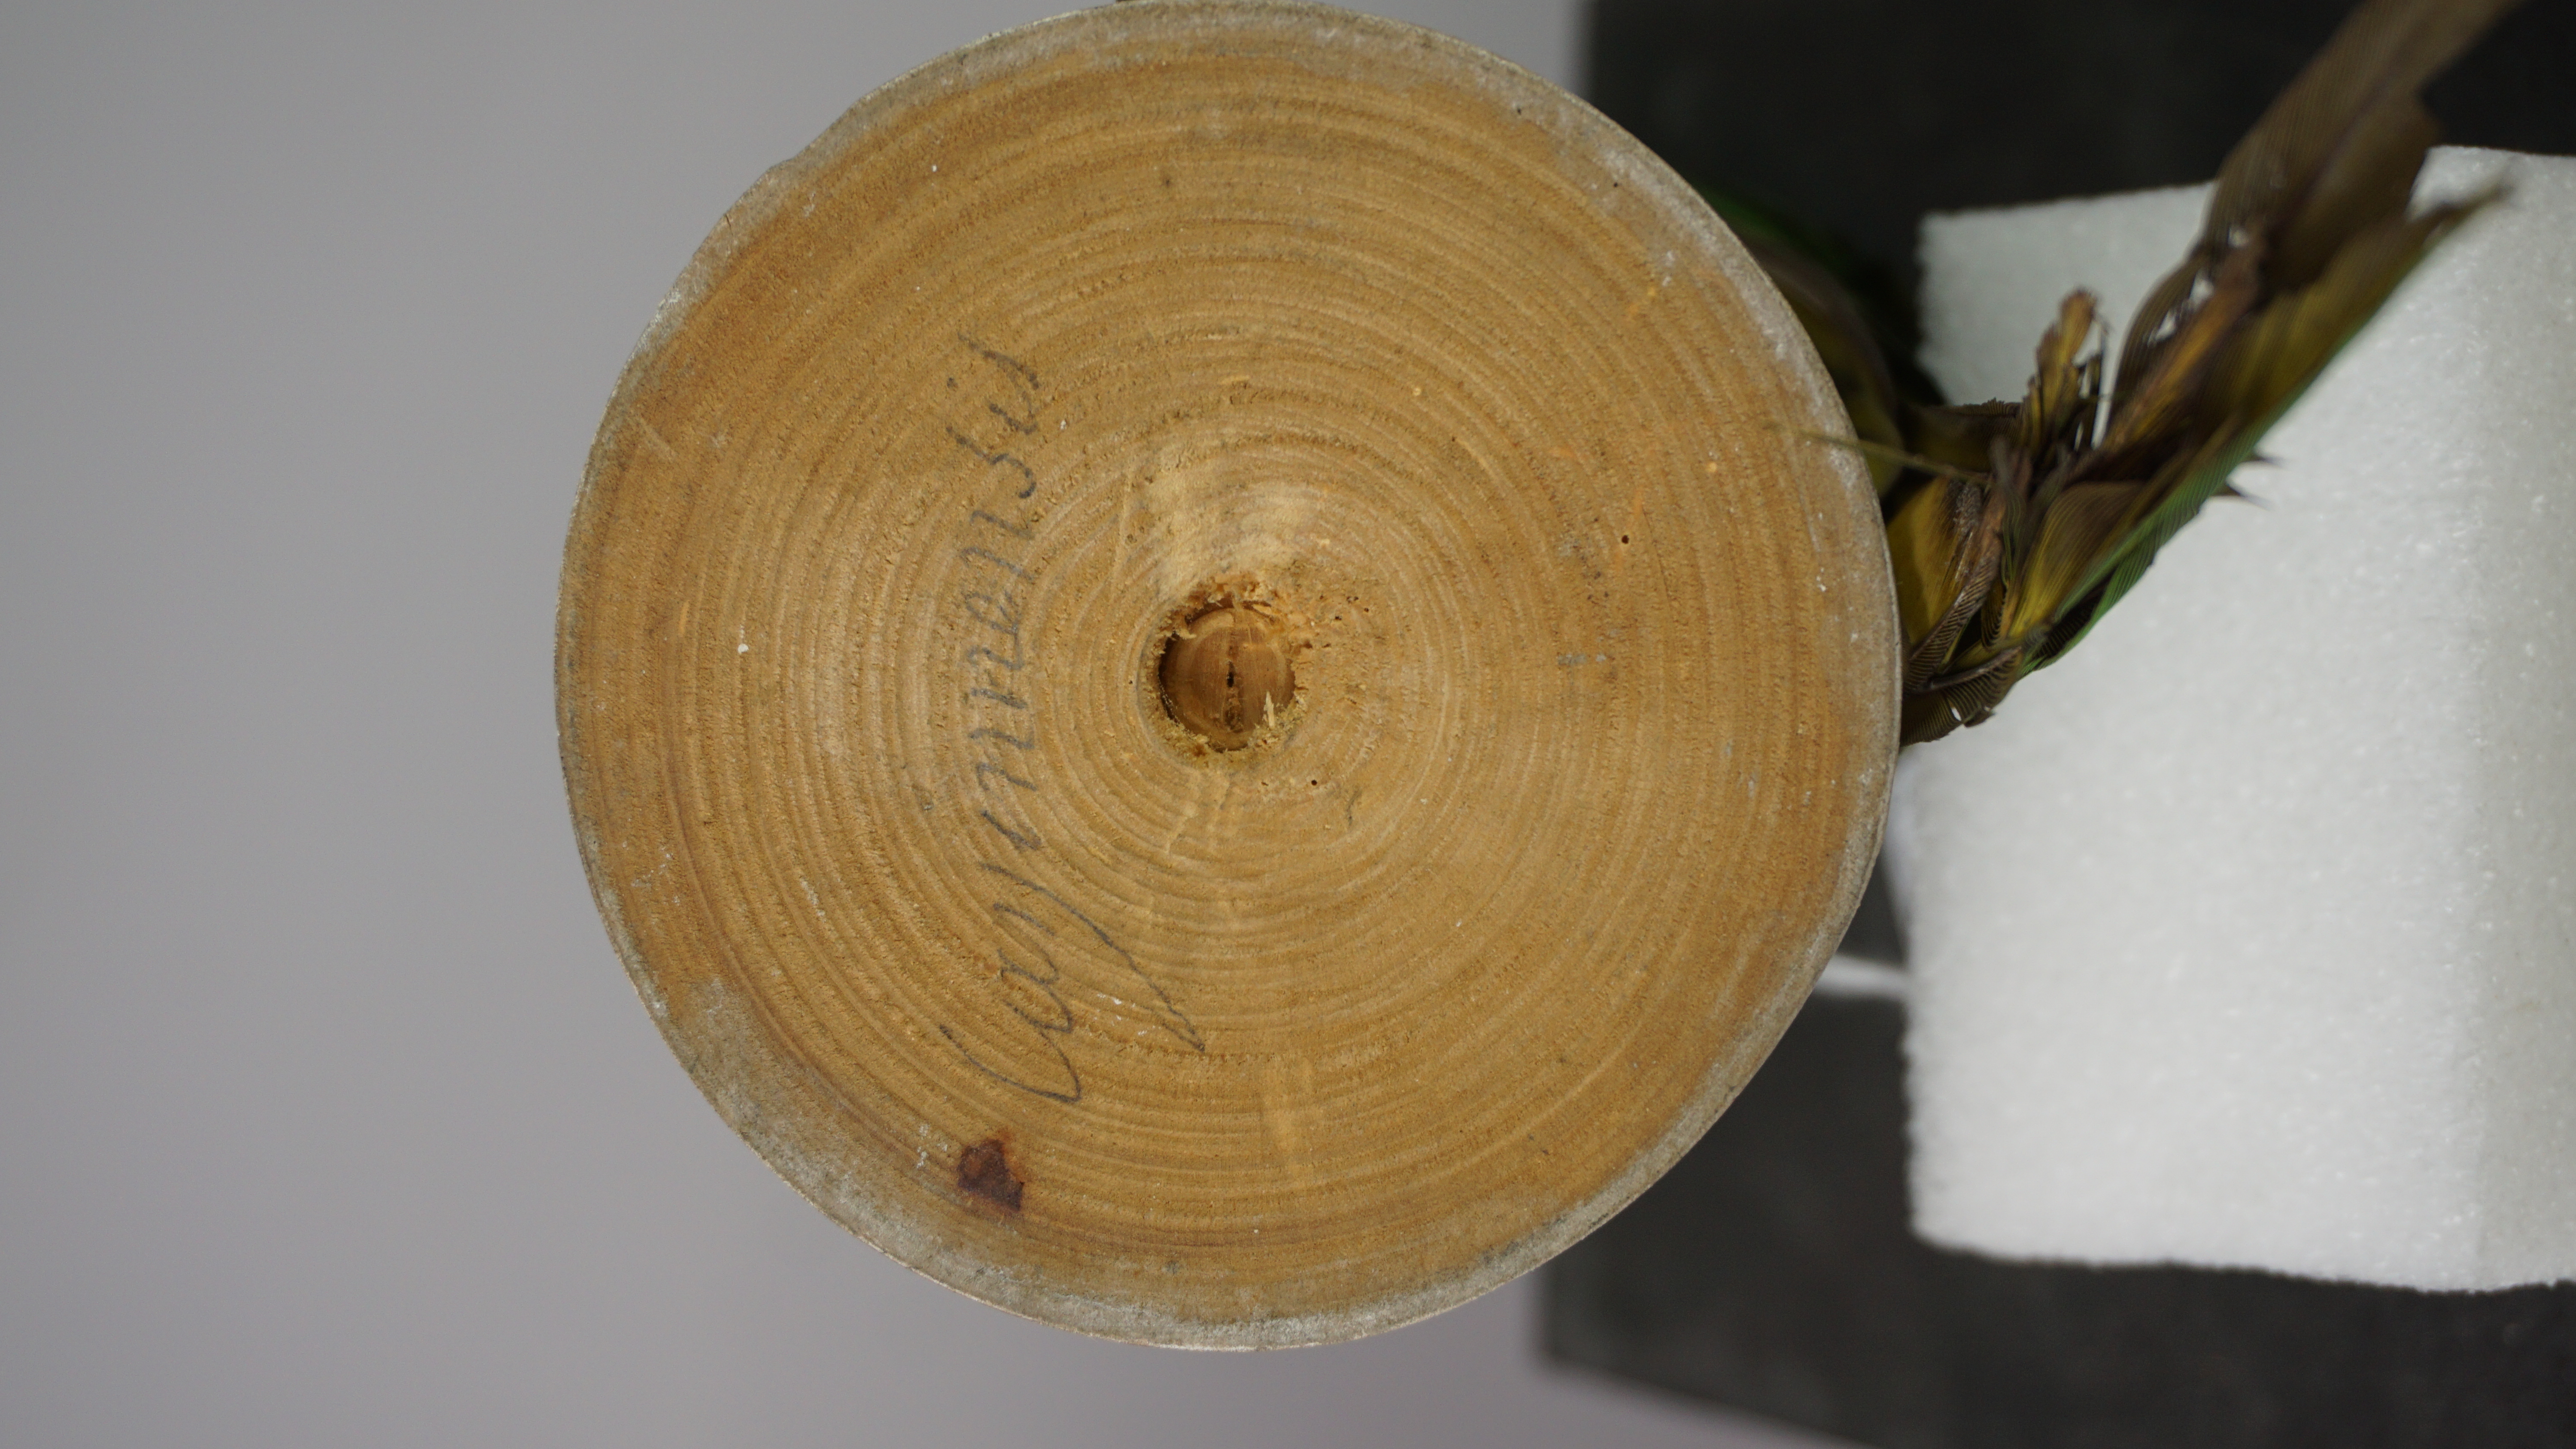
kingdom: Animalia
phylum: Chordata
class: Aves
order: Psittaciformes
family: Psittacidae
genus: Aratinga
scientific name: Aratinga leucophthalma
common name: White-eyed parakeet
